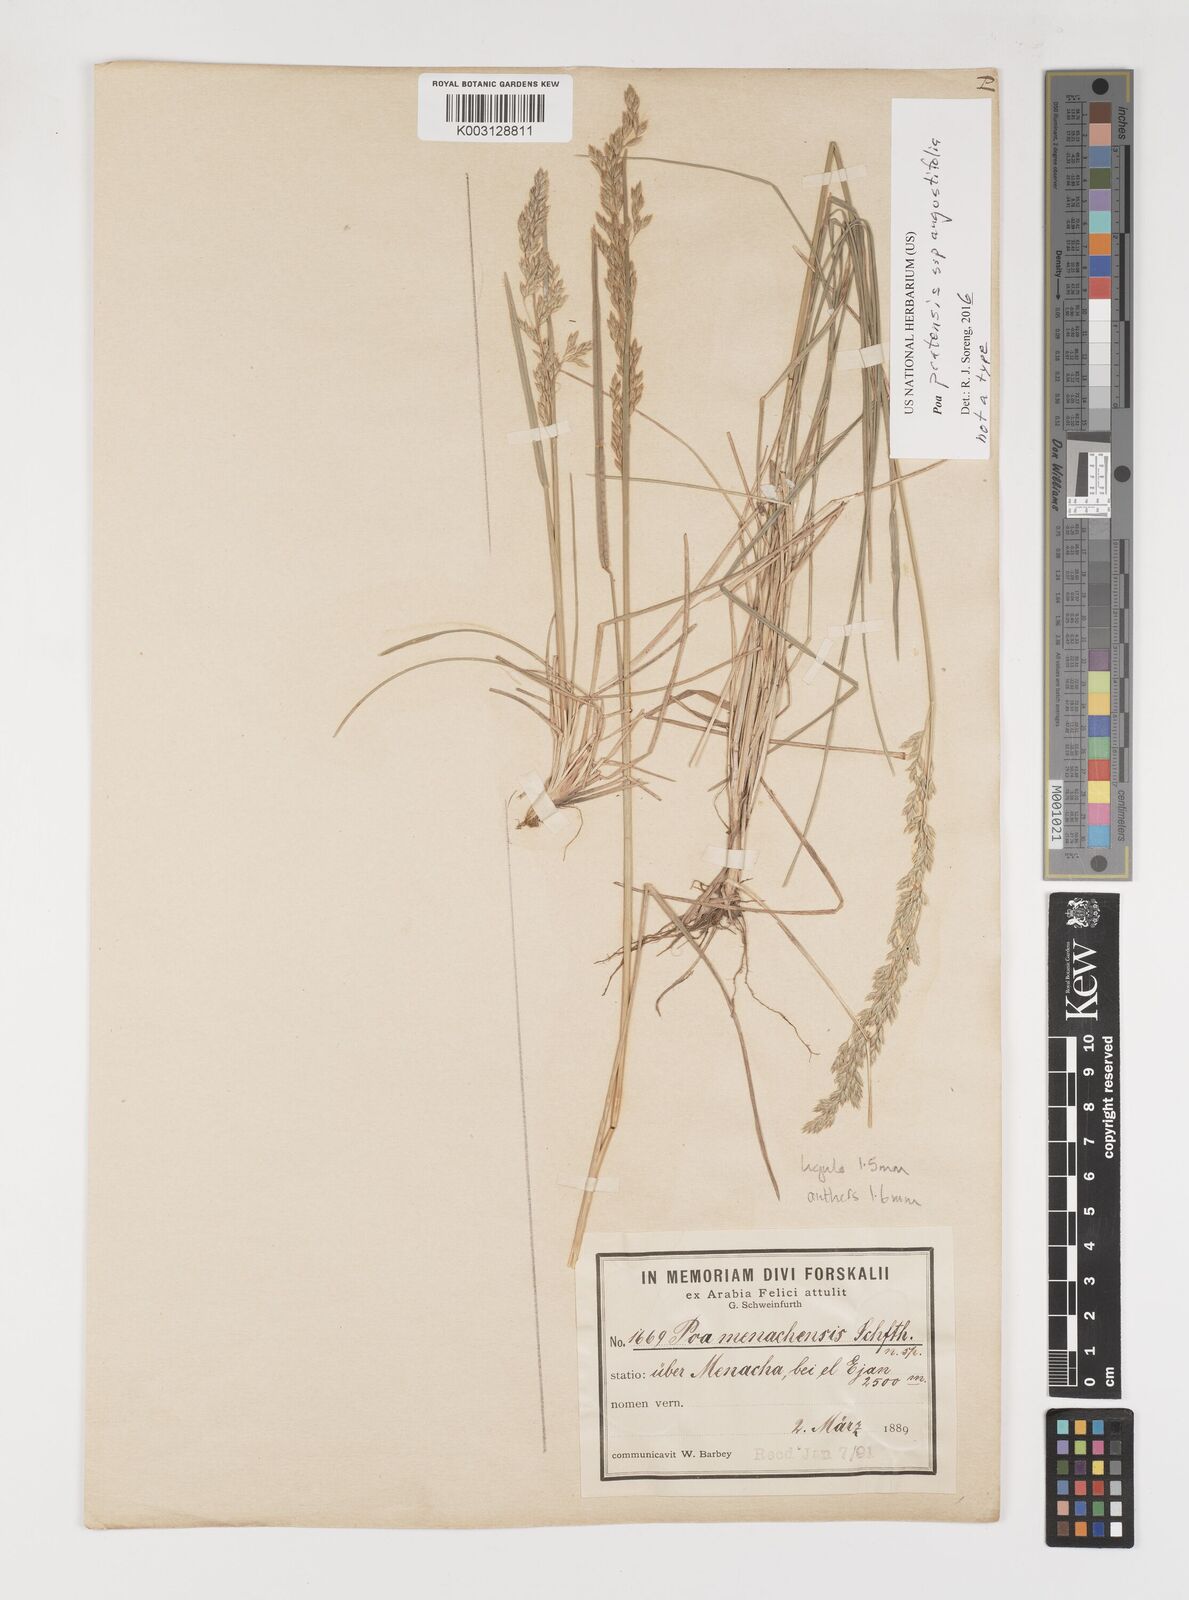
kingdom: Plantae
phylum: Tracheophyta
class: Liliopsida
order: Poales
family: Poaceae
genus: Poa
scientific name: Poa angustifolia
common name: Narrow-leaved meadow-grass
